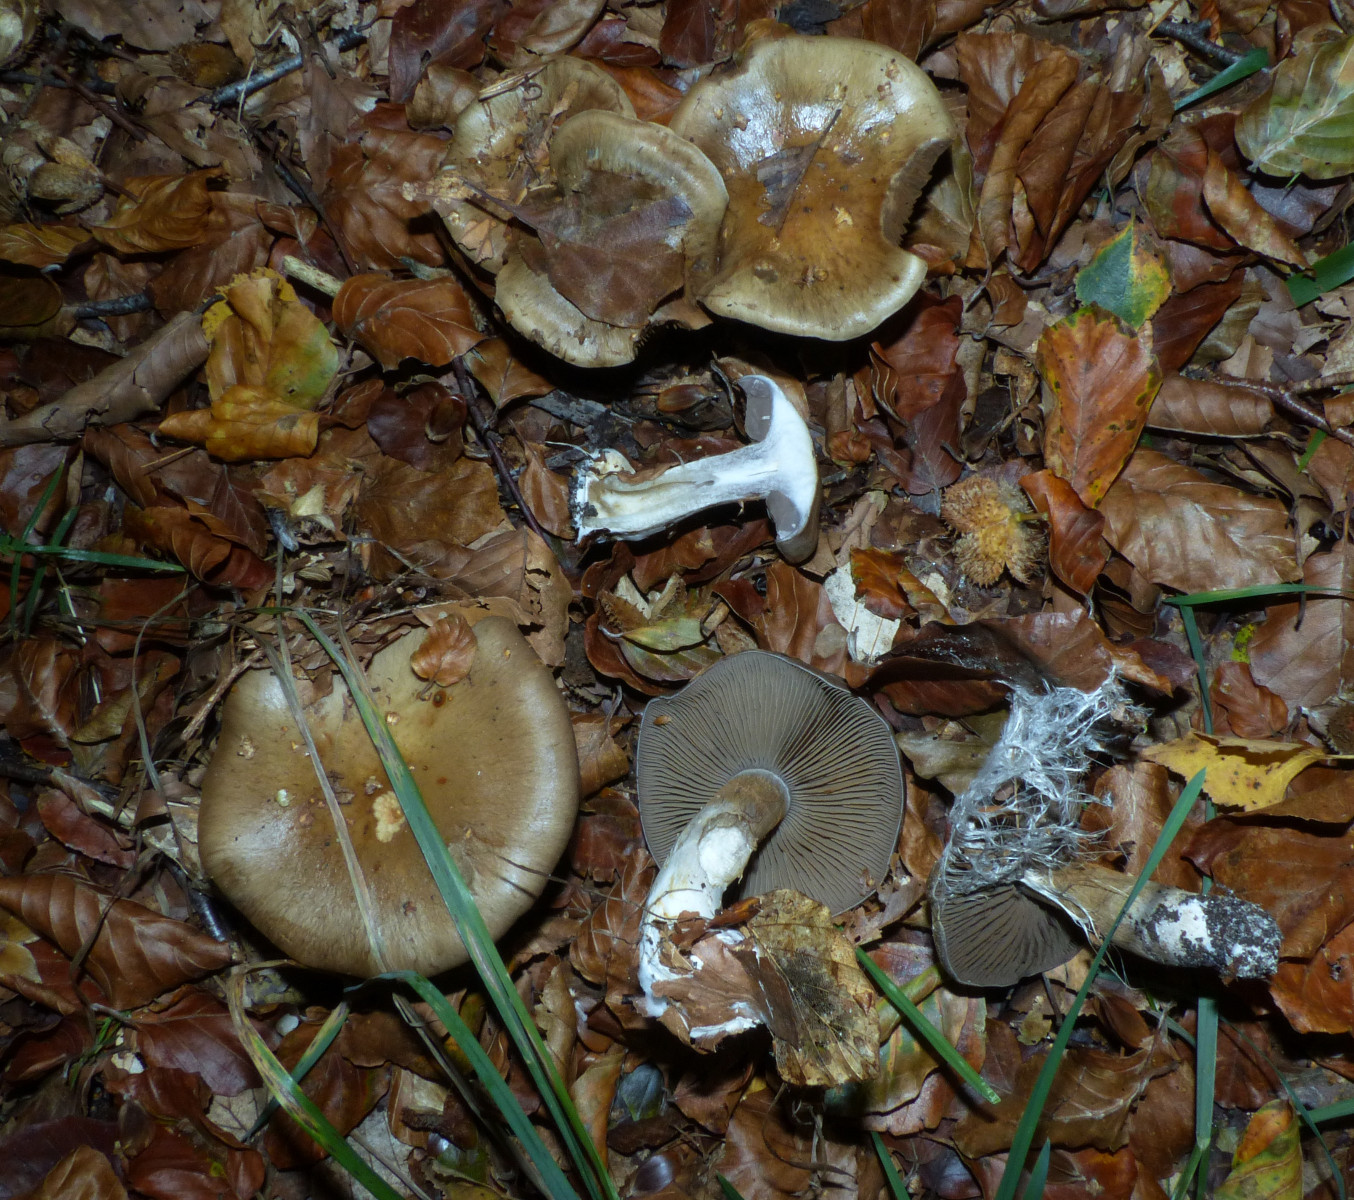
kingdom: Fungi
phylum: Basidiomycota
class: Agaricomycetes
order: Agaricales
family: Cortinariaceae
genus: Cortinarius
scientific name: Cortinarius
